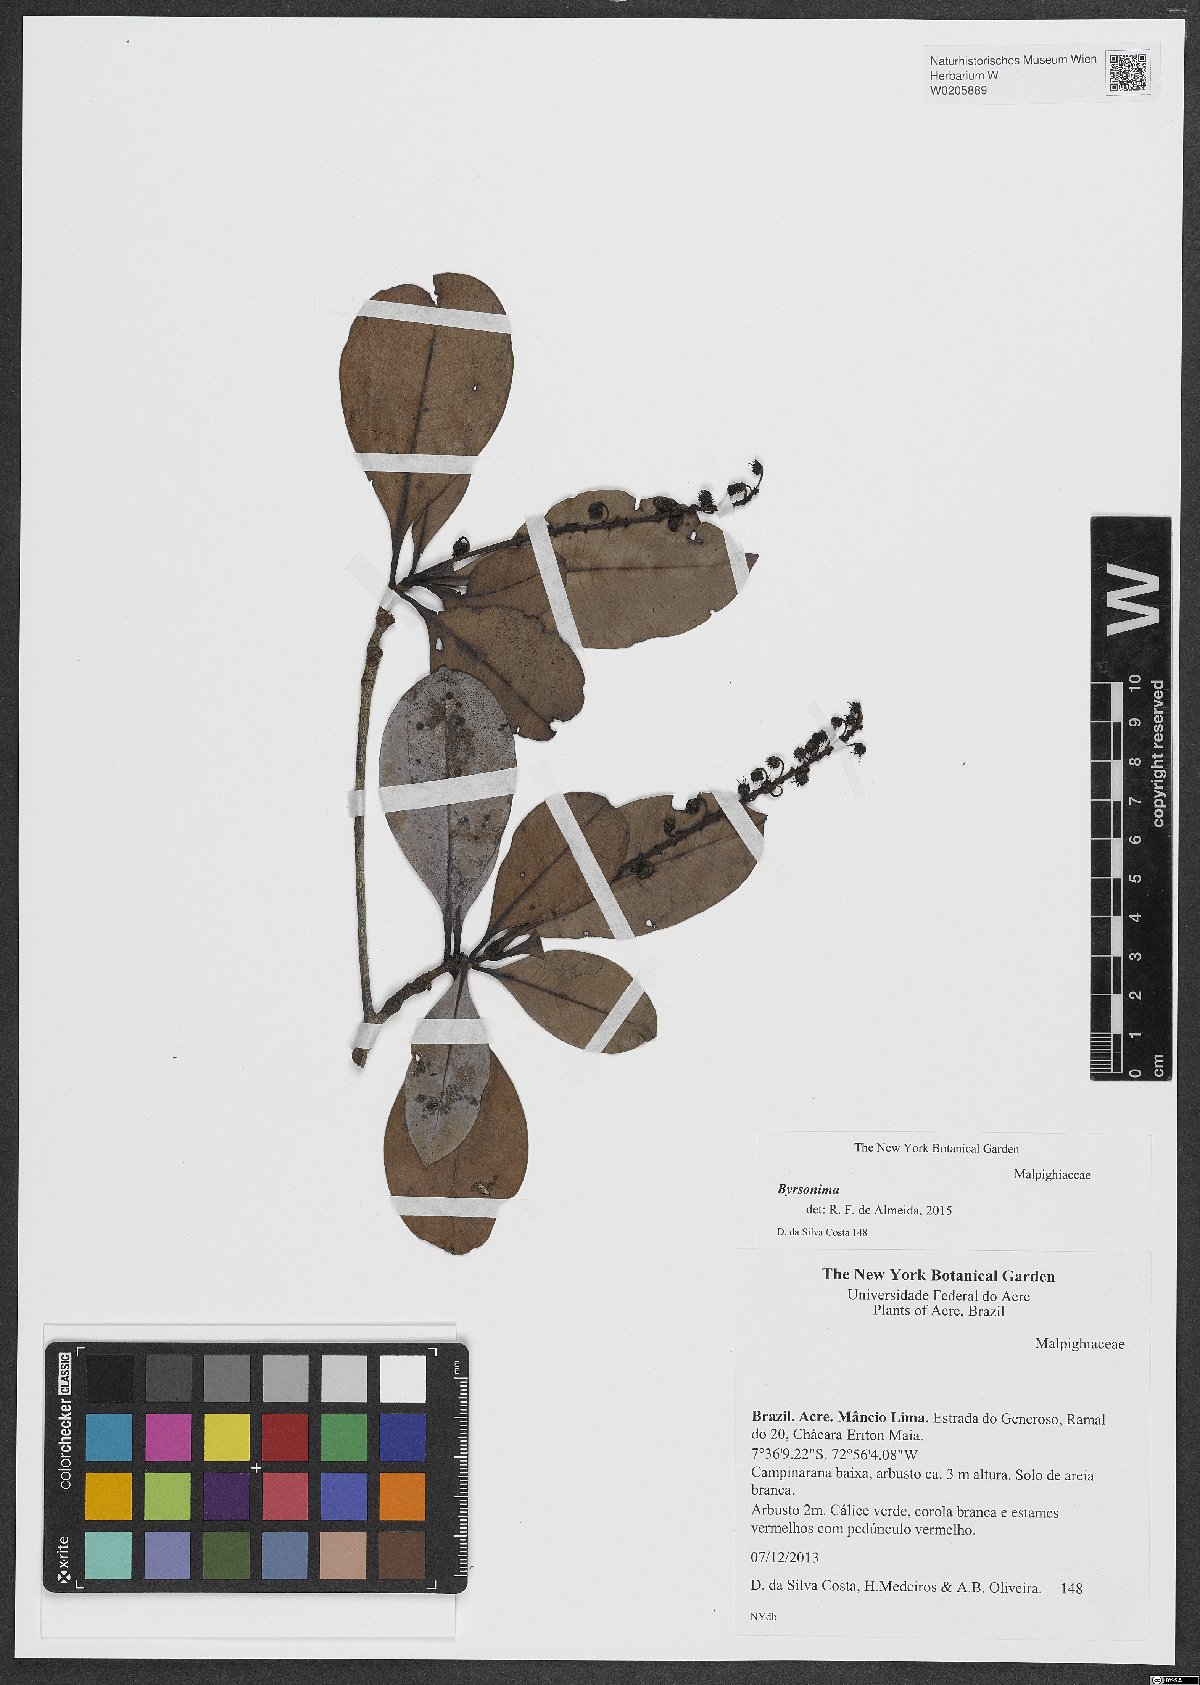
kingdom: Plantae
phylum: Tracheophyta
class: Magnoliopsida
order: Malpighiales
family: Malpighiaceae
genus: Byrsonima
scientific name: Byrsonima
